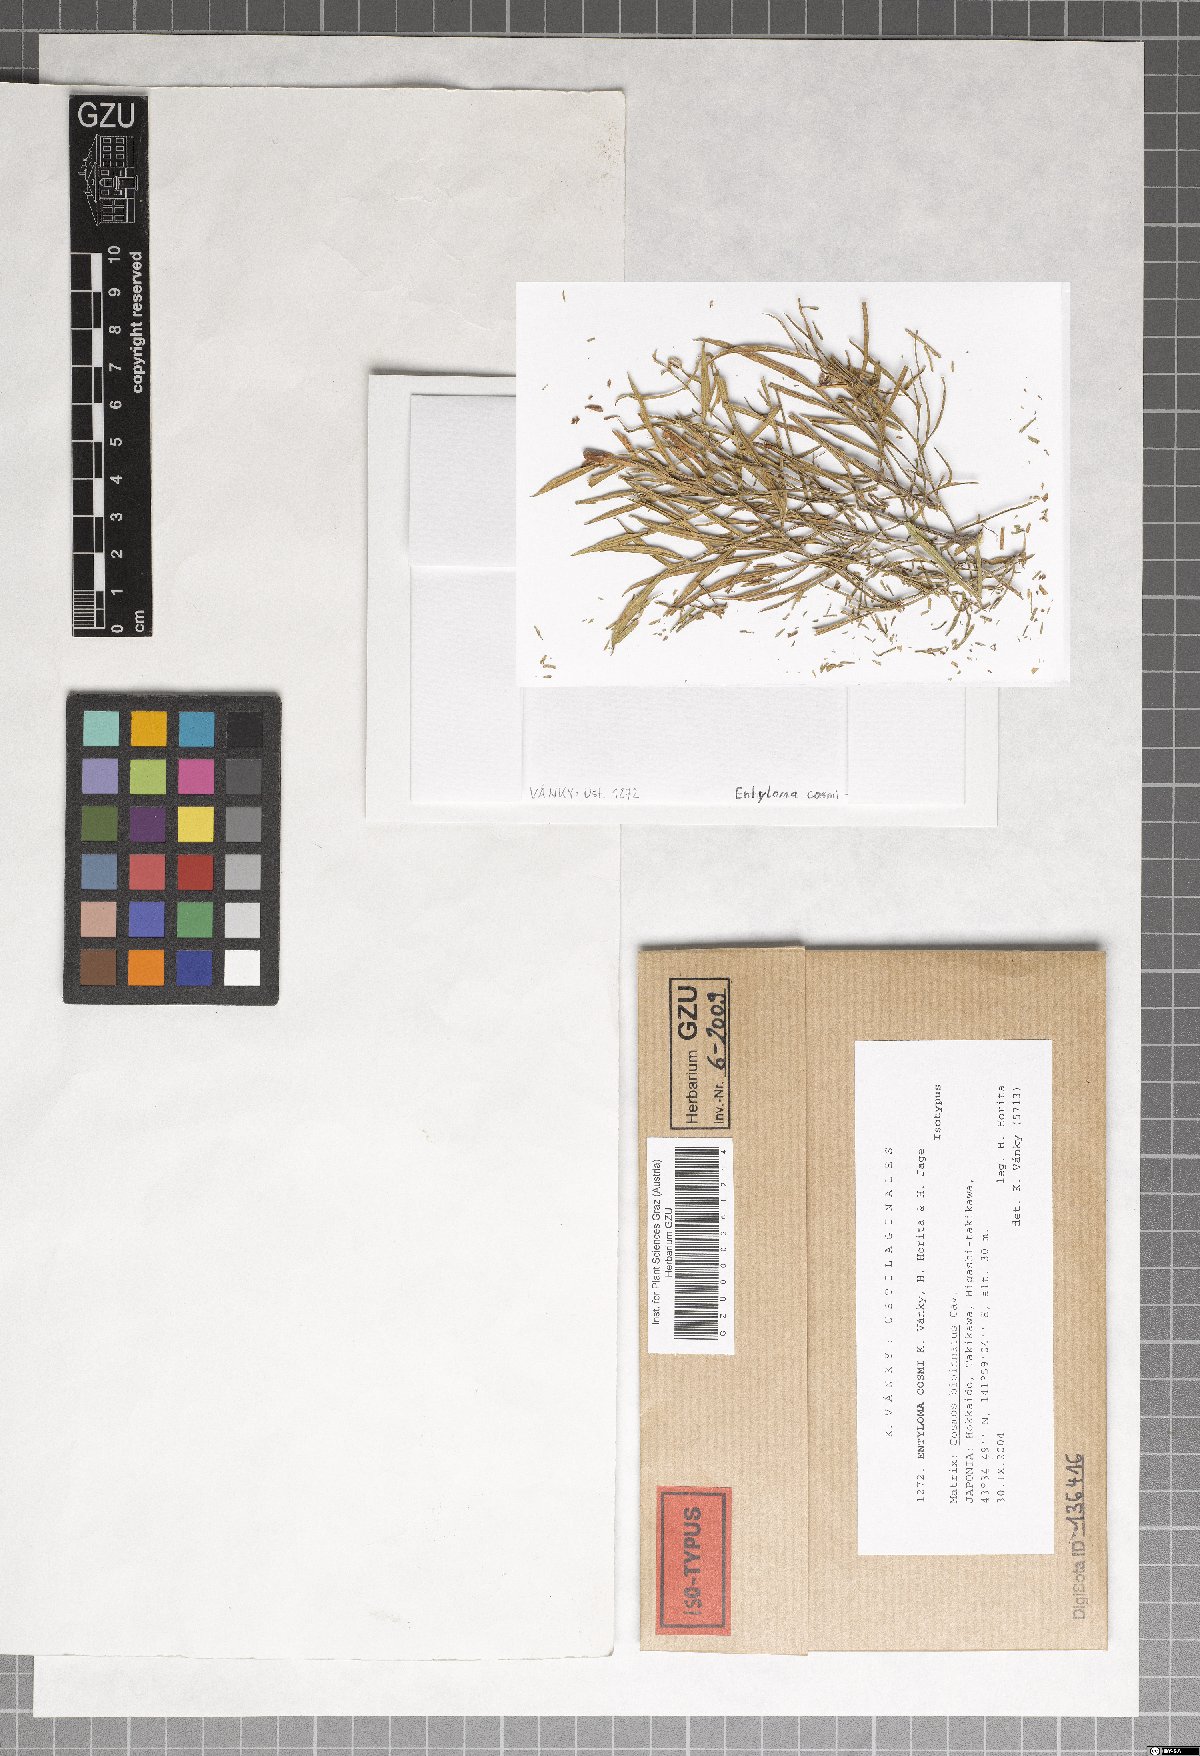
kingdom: Fungi
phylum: Basidiomycota
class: Exobasidiomycetes
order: Entylomatales
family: Entylomataceae
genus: Entyloma
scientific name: Entyloma cosmi
